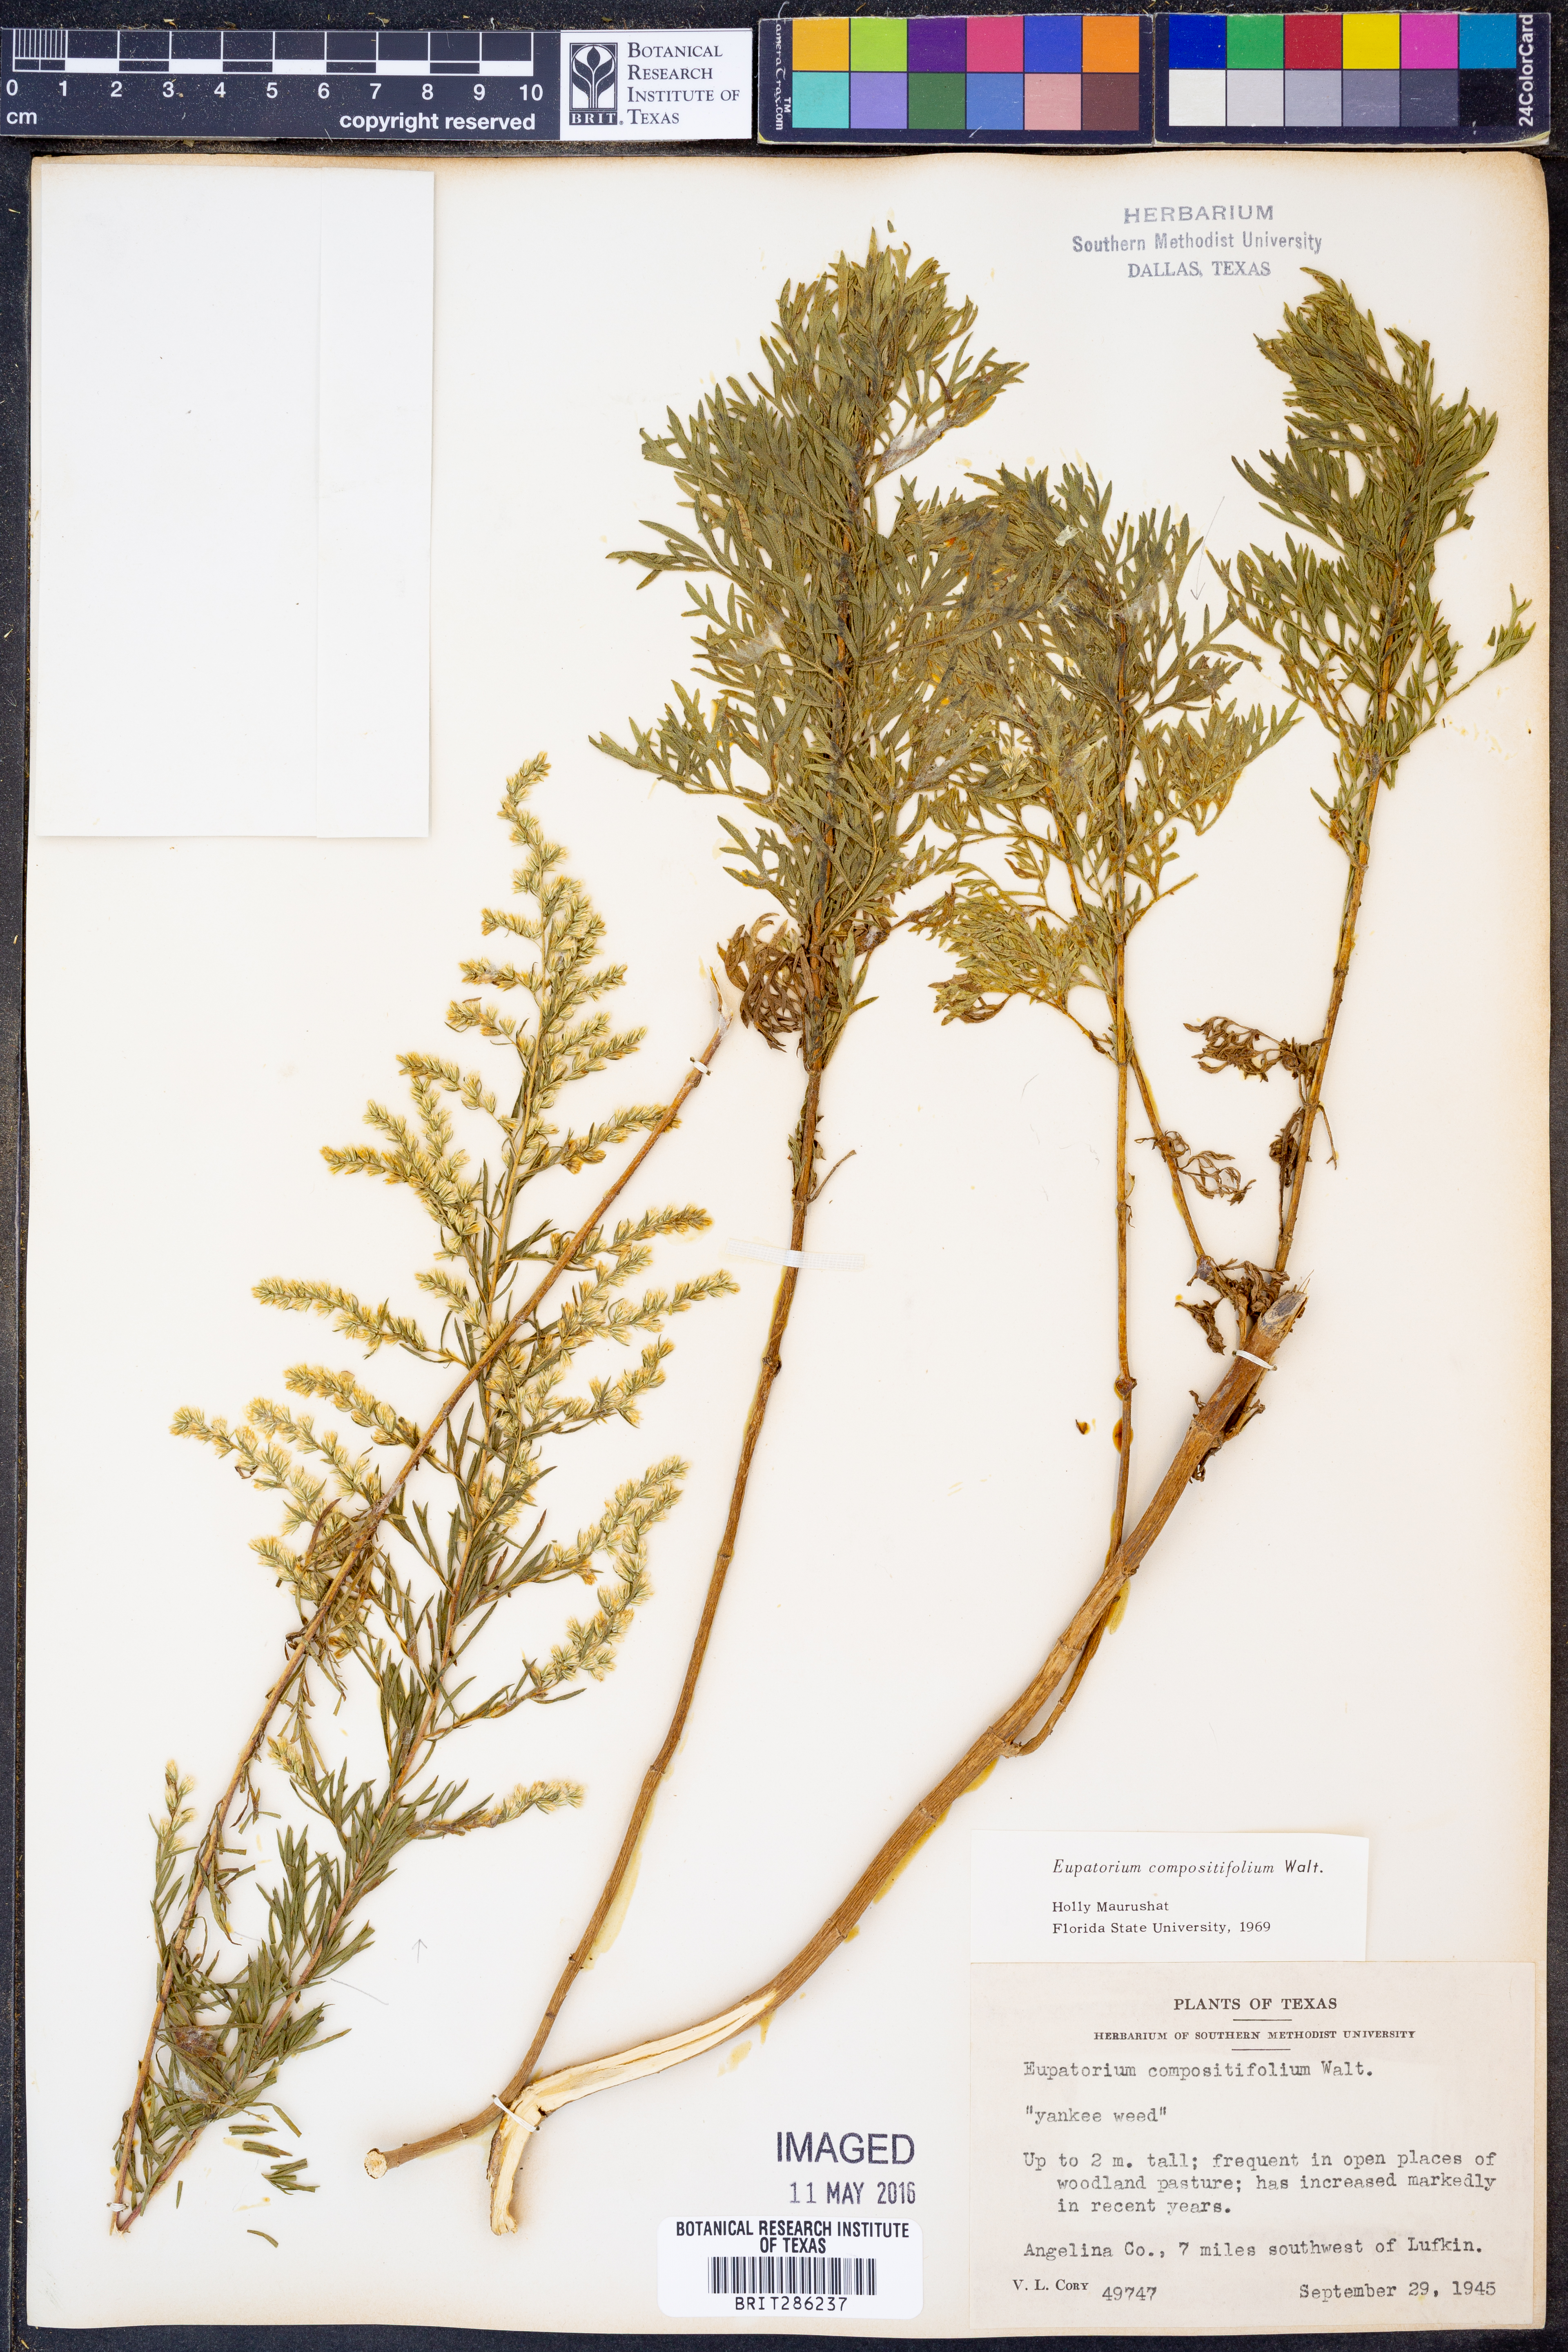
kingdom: Plantae
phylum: Tracheophyta
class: Magnoliopsida
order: Asterales
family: Asteraceae
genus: Eupatorium
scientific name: Eupatorium compositifolium
